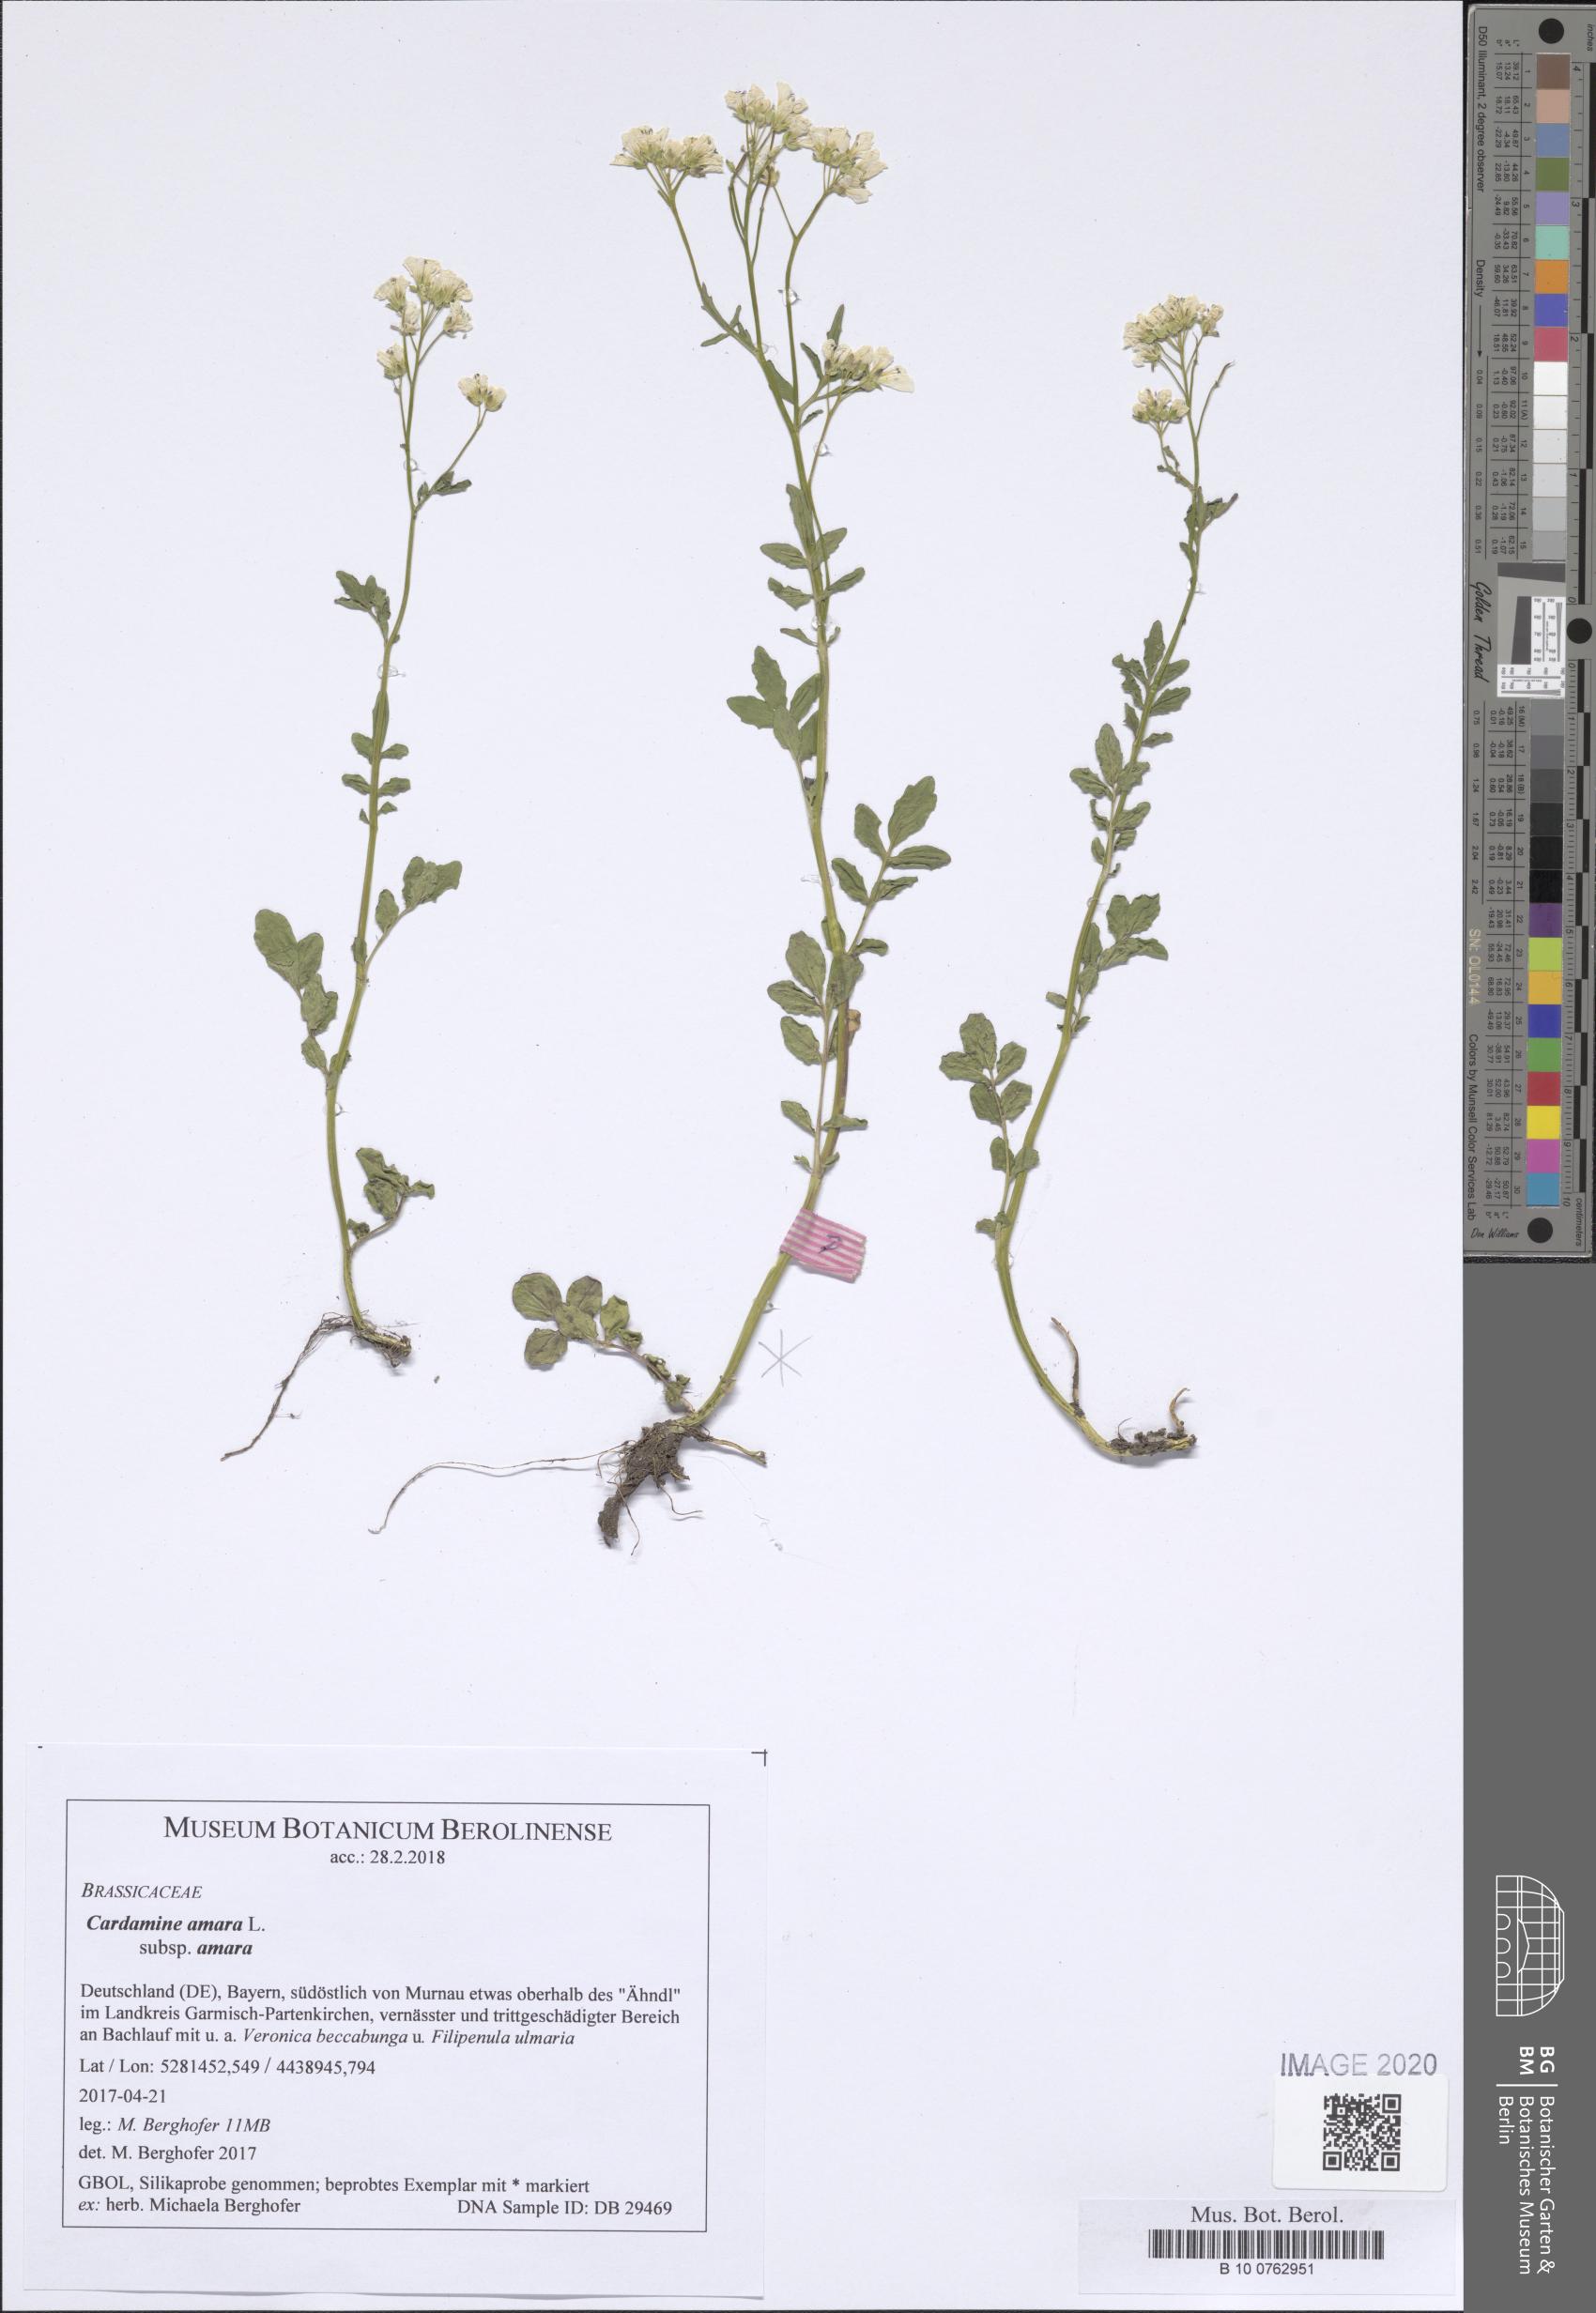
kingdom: Plantae
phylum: Tracheophyta
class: Magnoliopsida
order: Brassicales
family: Brassicaceae
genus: Cardamine
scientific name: Cardamine amara
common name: Large bitter-cress
